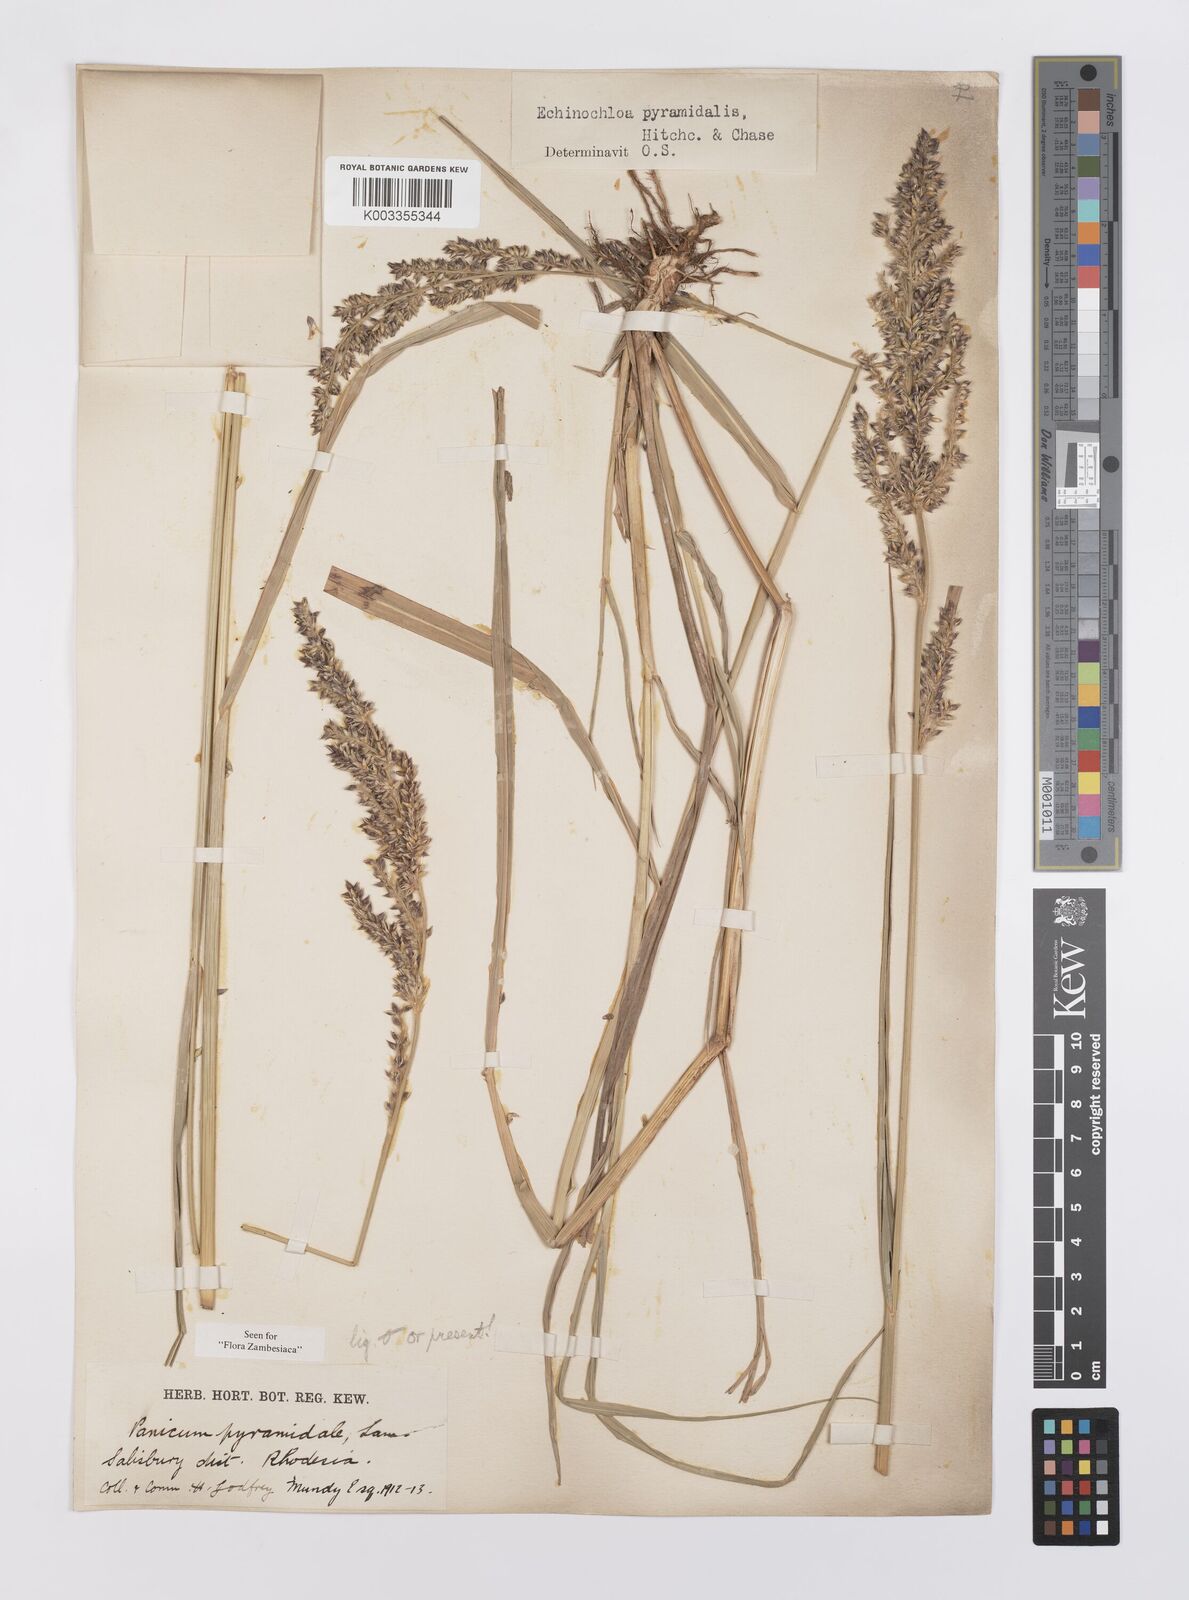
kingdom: Plantae
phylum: Tracheophyta
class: Liliopsida
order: Poales
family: Poaceae
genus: Echinochloa
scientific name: Echinochloa pyramidalis
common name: Antelope grass
